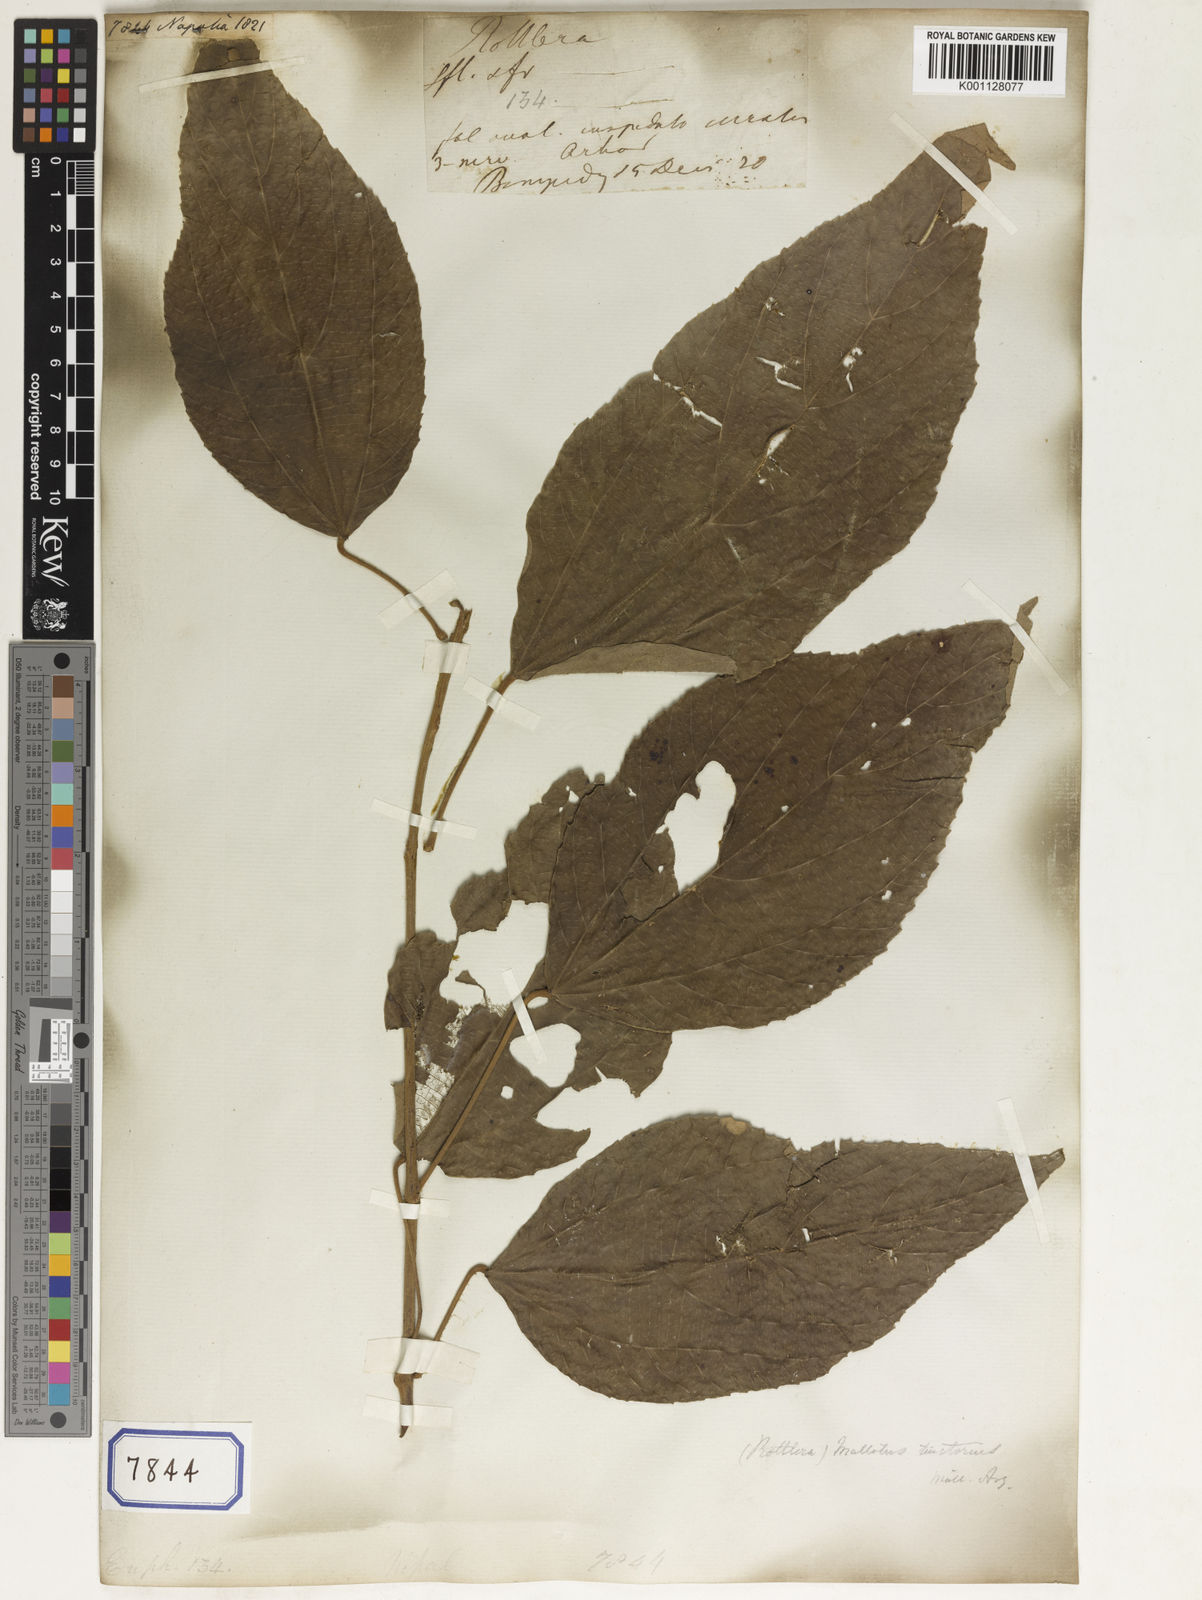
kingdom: Plantae
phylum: Tracheophyta
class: Magnoliopsida
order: Malpighiales
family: Euphorbiaceae
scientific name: Euphorbiaceae
